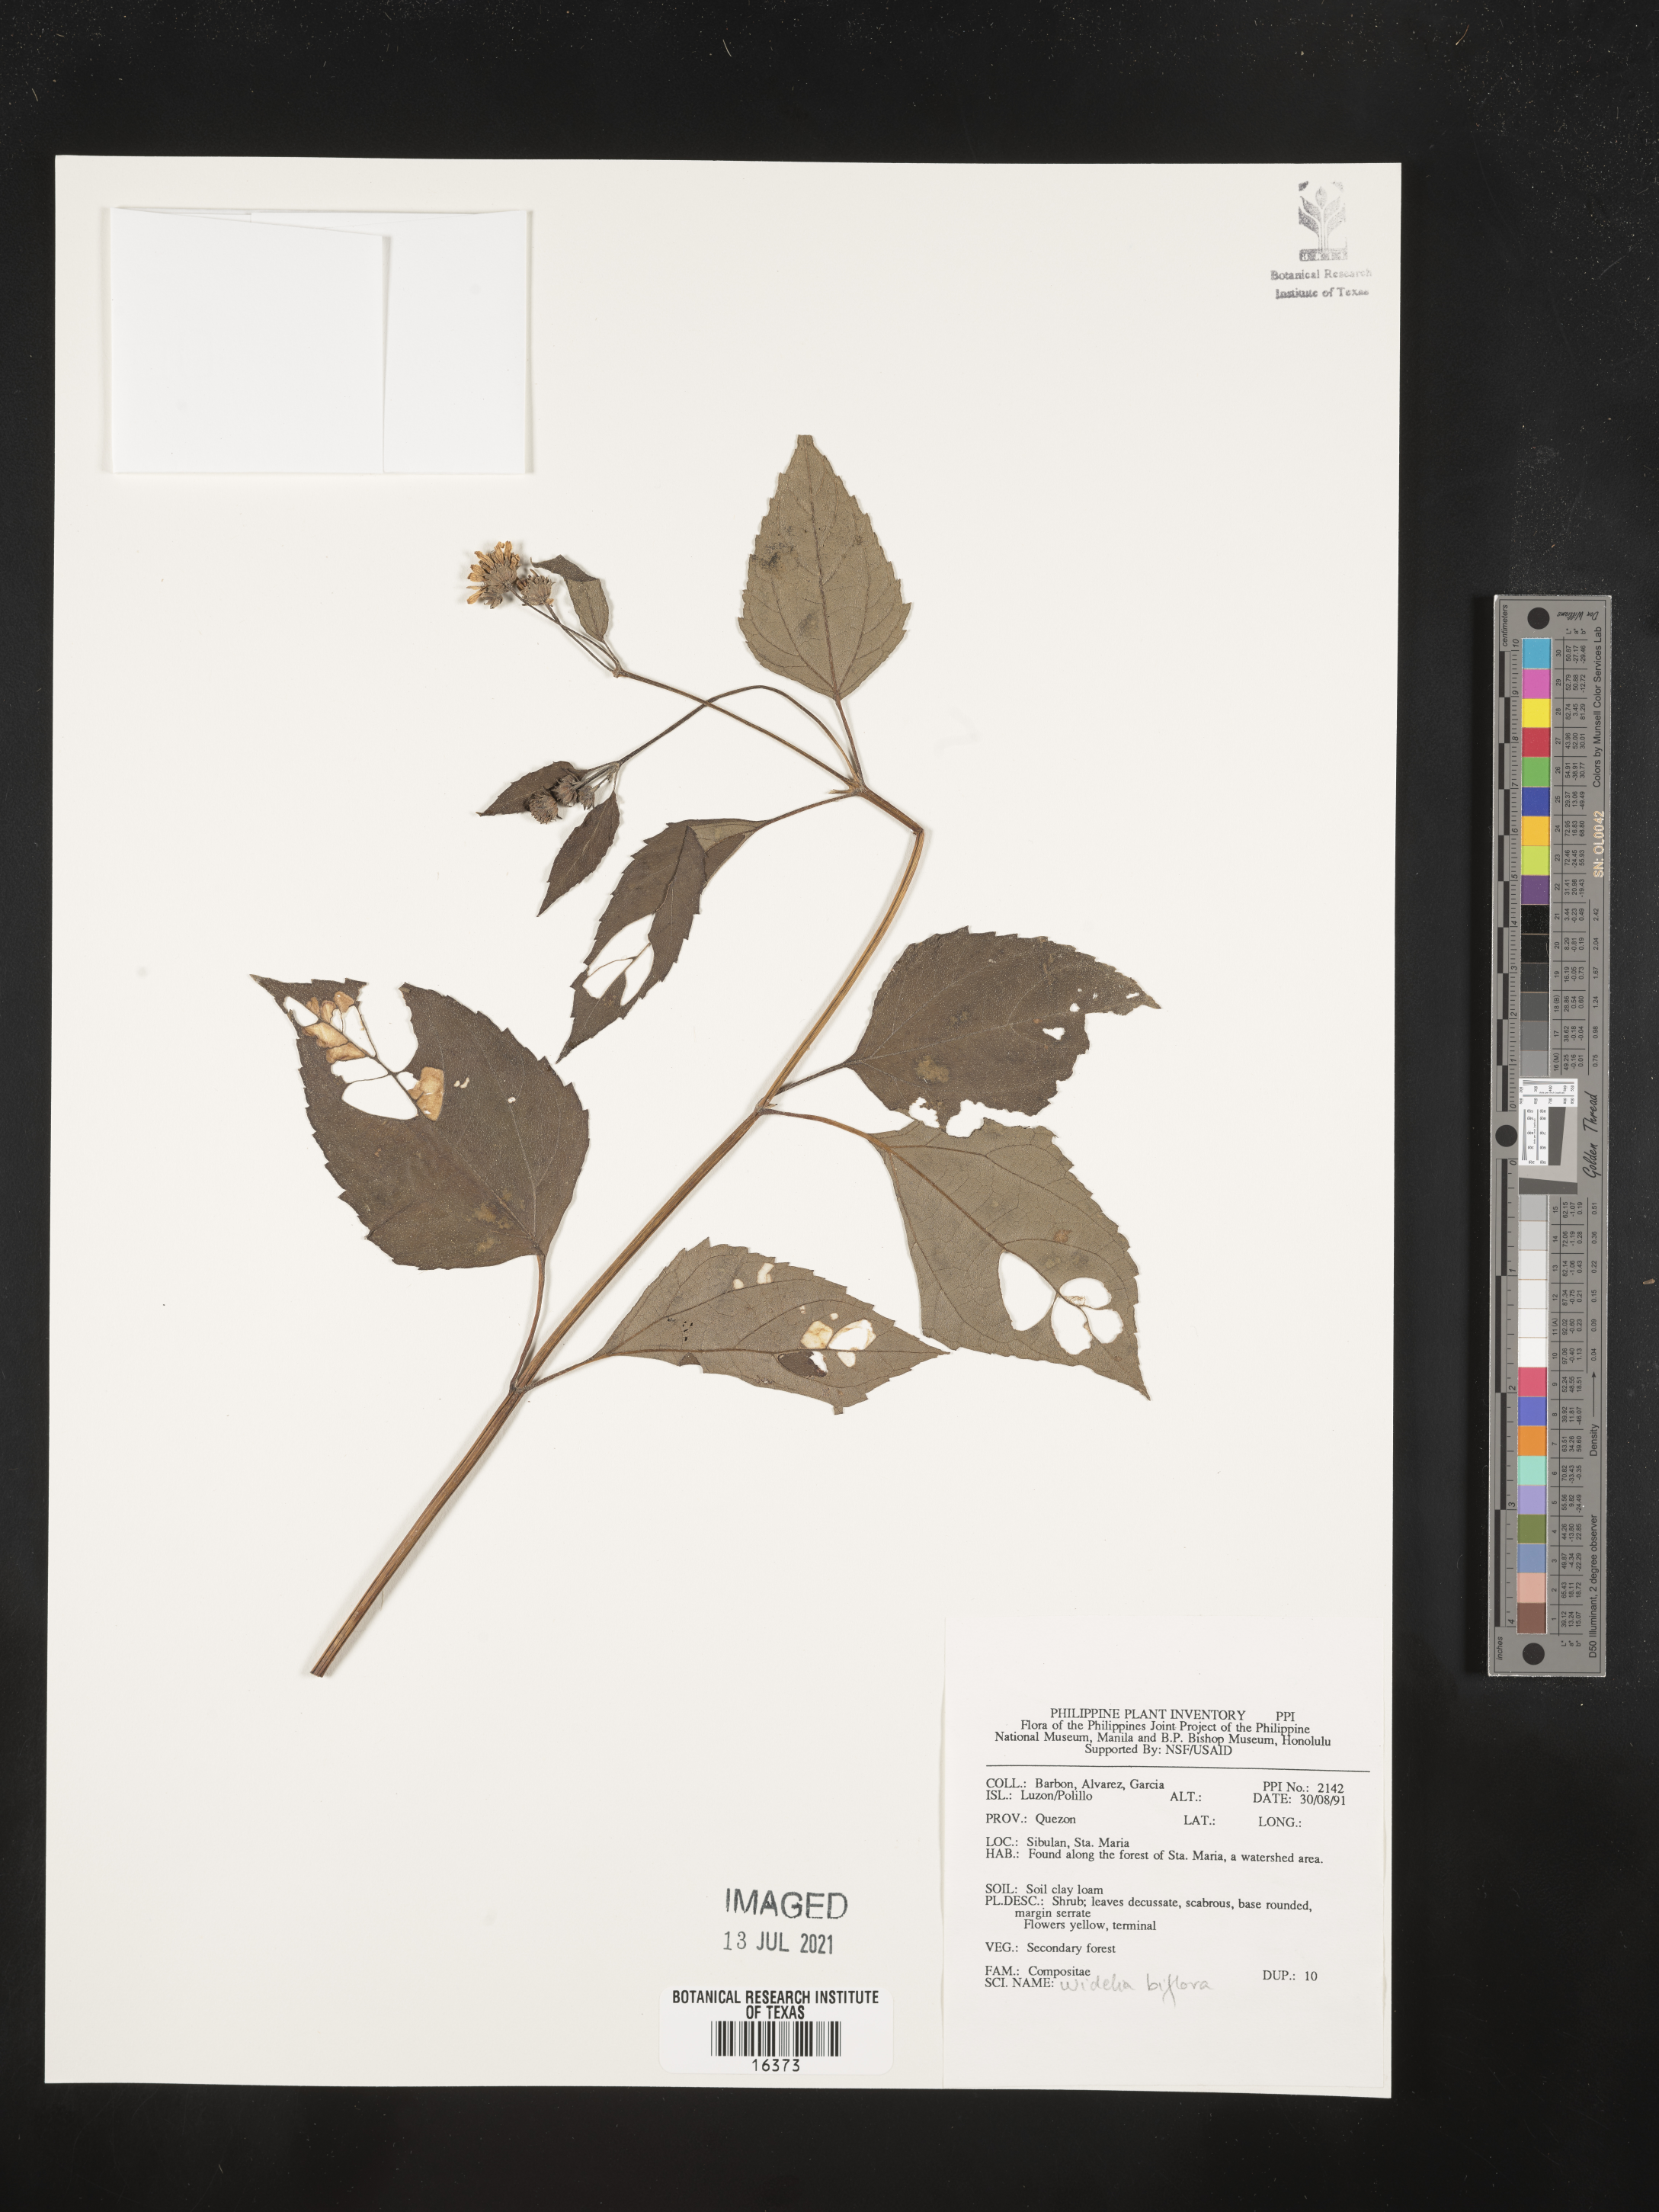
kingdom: Plantae
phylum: Tracheophyta
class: Magnoliopsida
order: Asterales
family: Asteraceae
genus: Wollastonia
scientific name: Wollastonia biflora
